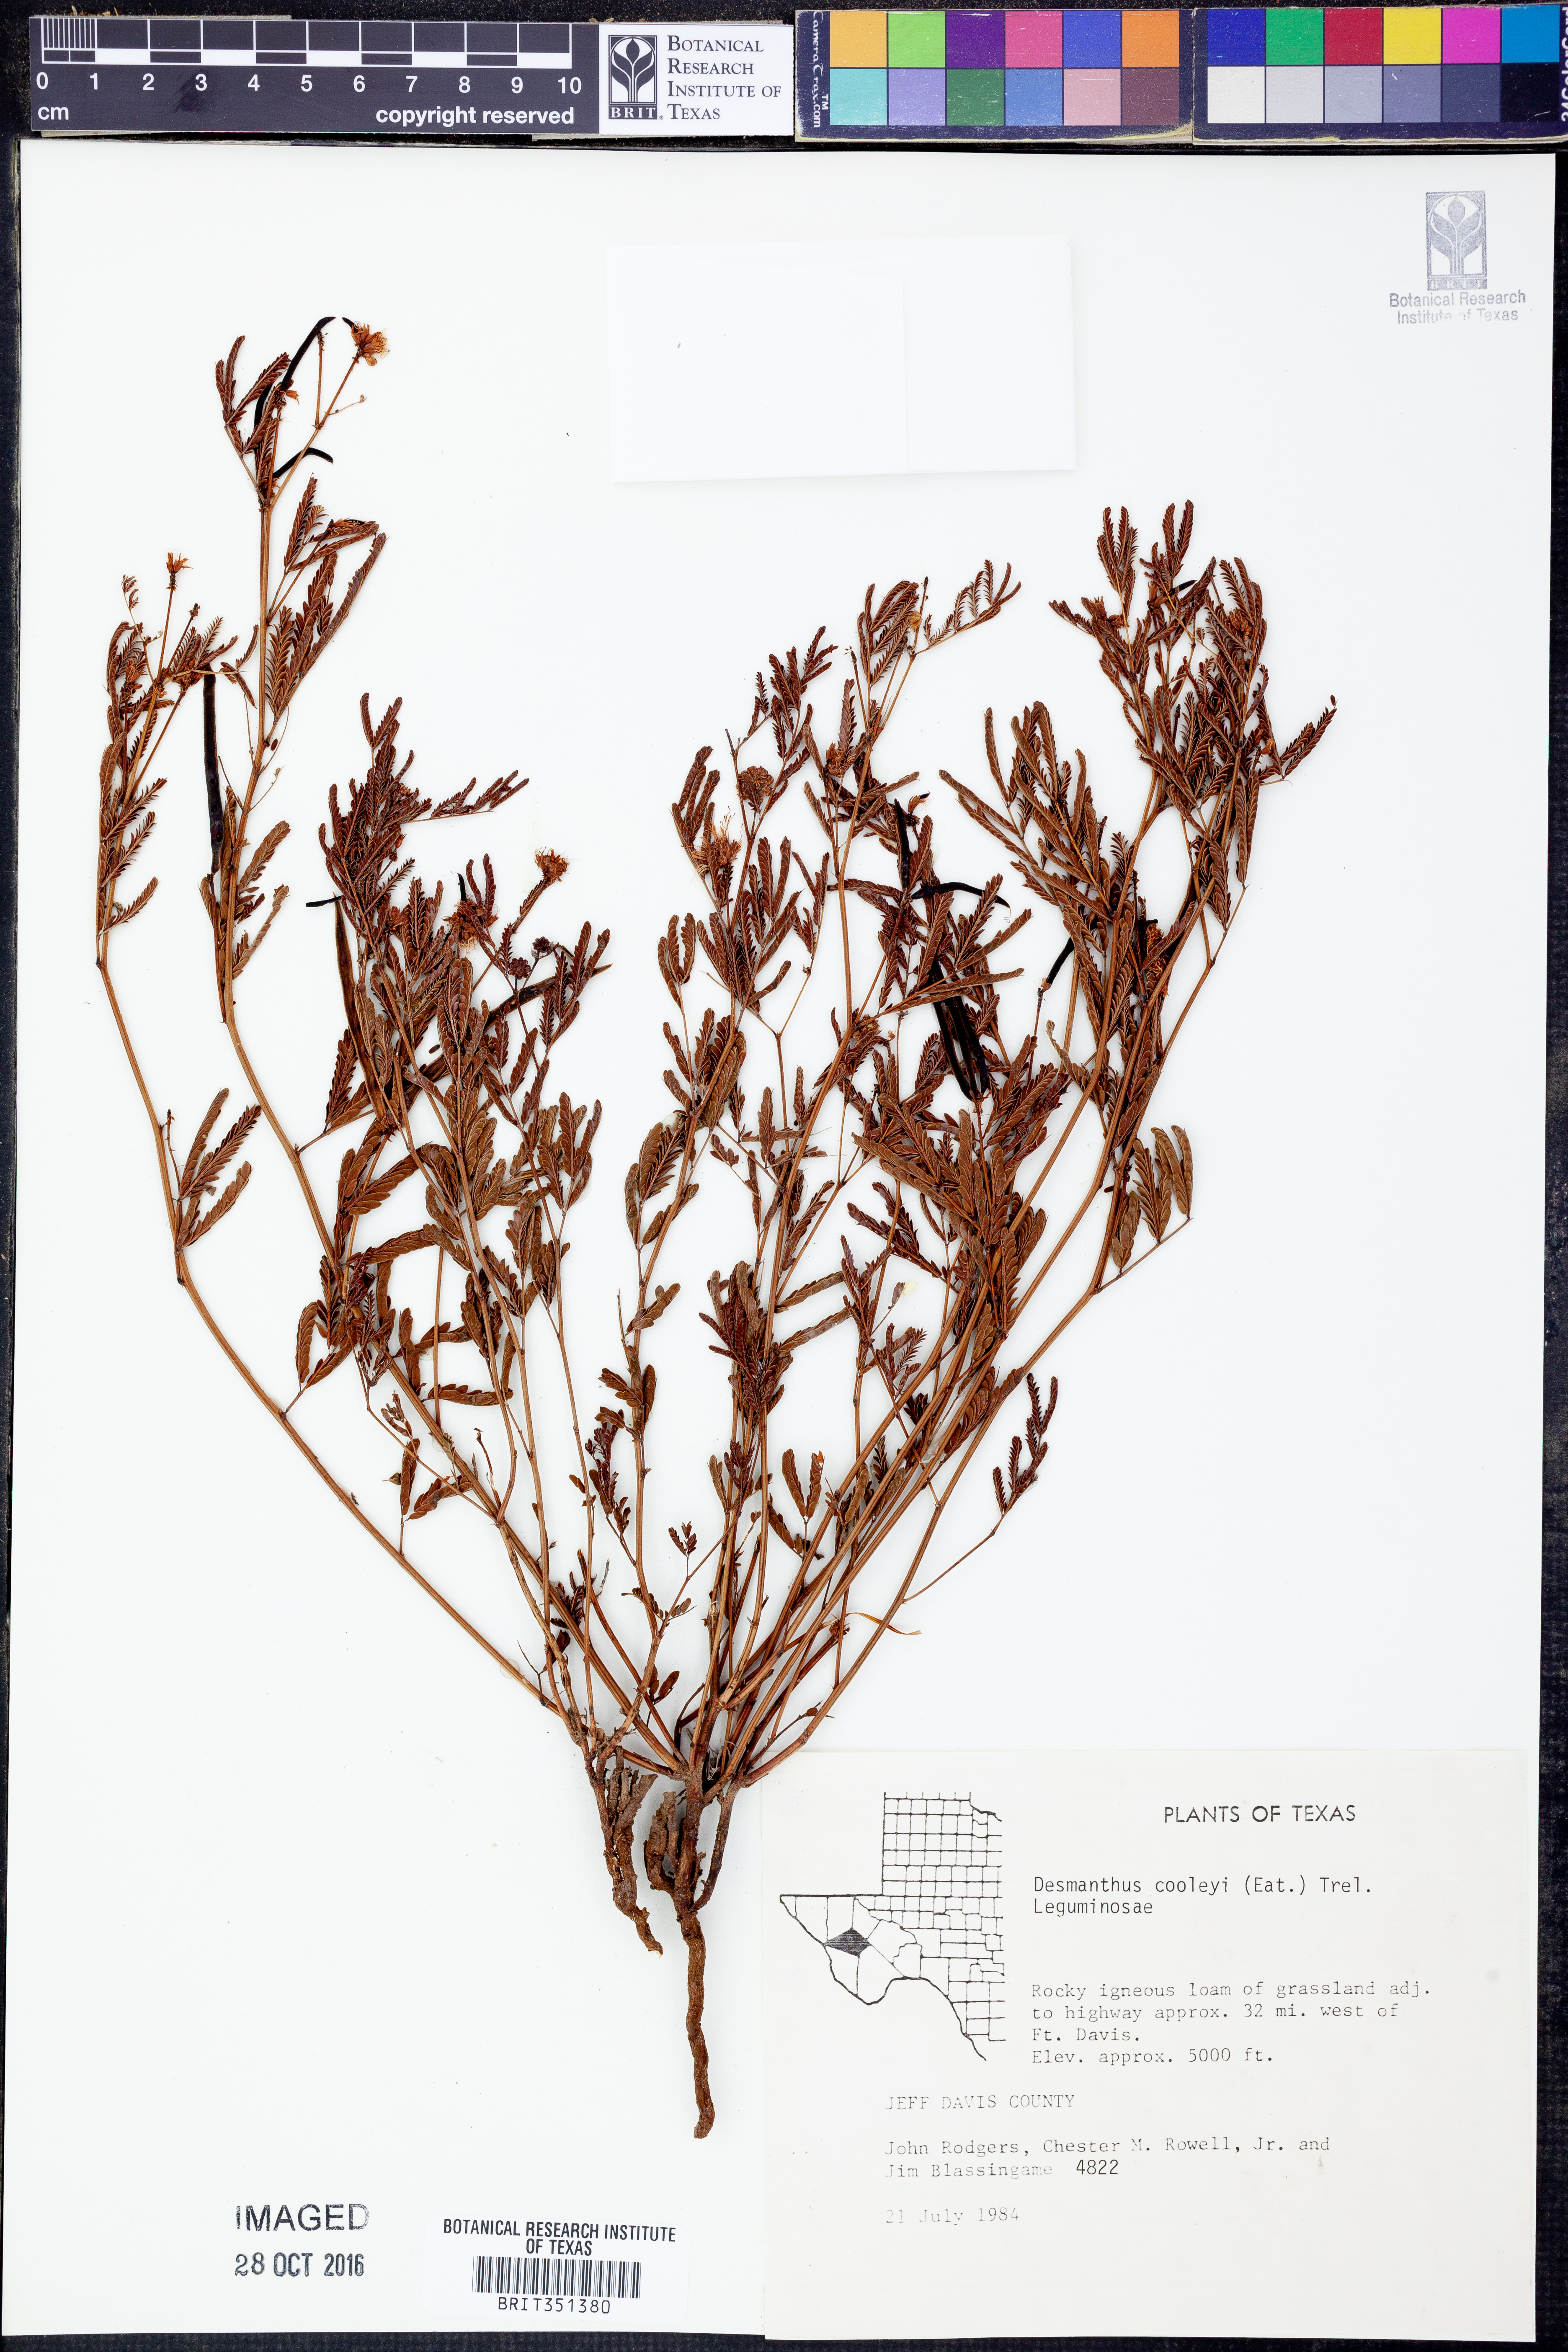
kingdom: Plantae
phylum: Tracheophyta
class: Magnoliopsida
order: Fabales
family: Fabaceae
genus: Desmanthus
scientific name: Desmanthus cooleyi
